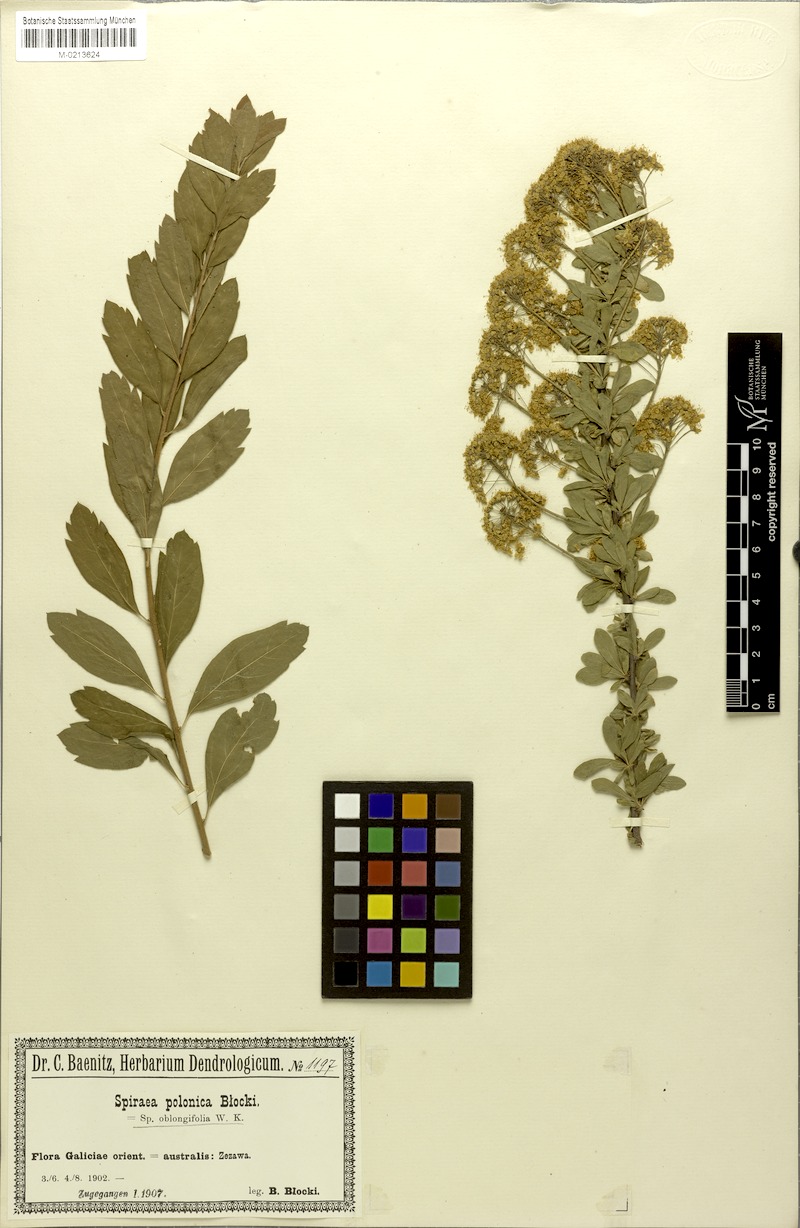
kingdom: Plantae
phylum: Tracheophyta
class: Magnoliopsida
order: Rosales
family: Rosaceae
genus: Spiraea
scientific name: Spiraea media
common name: Russian spiraea
